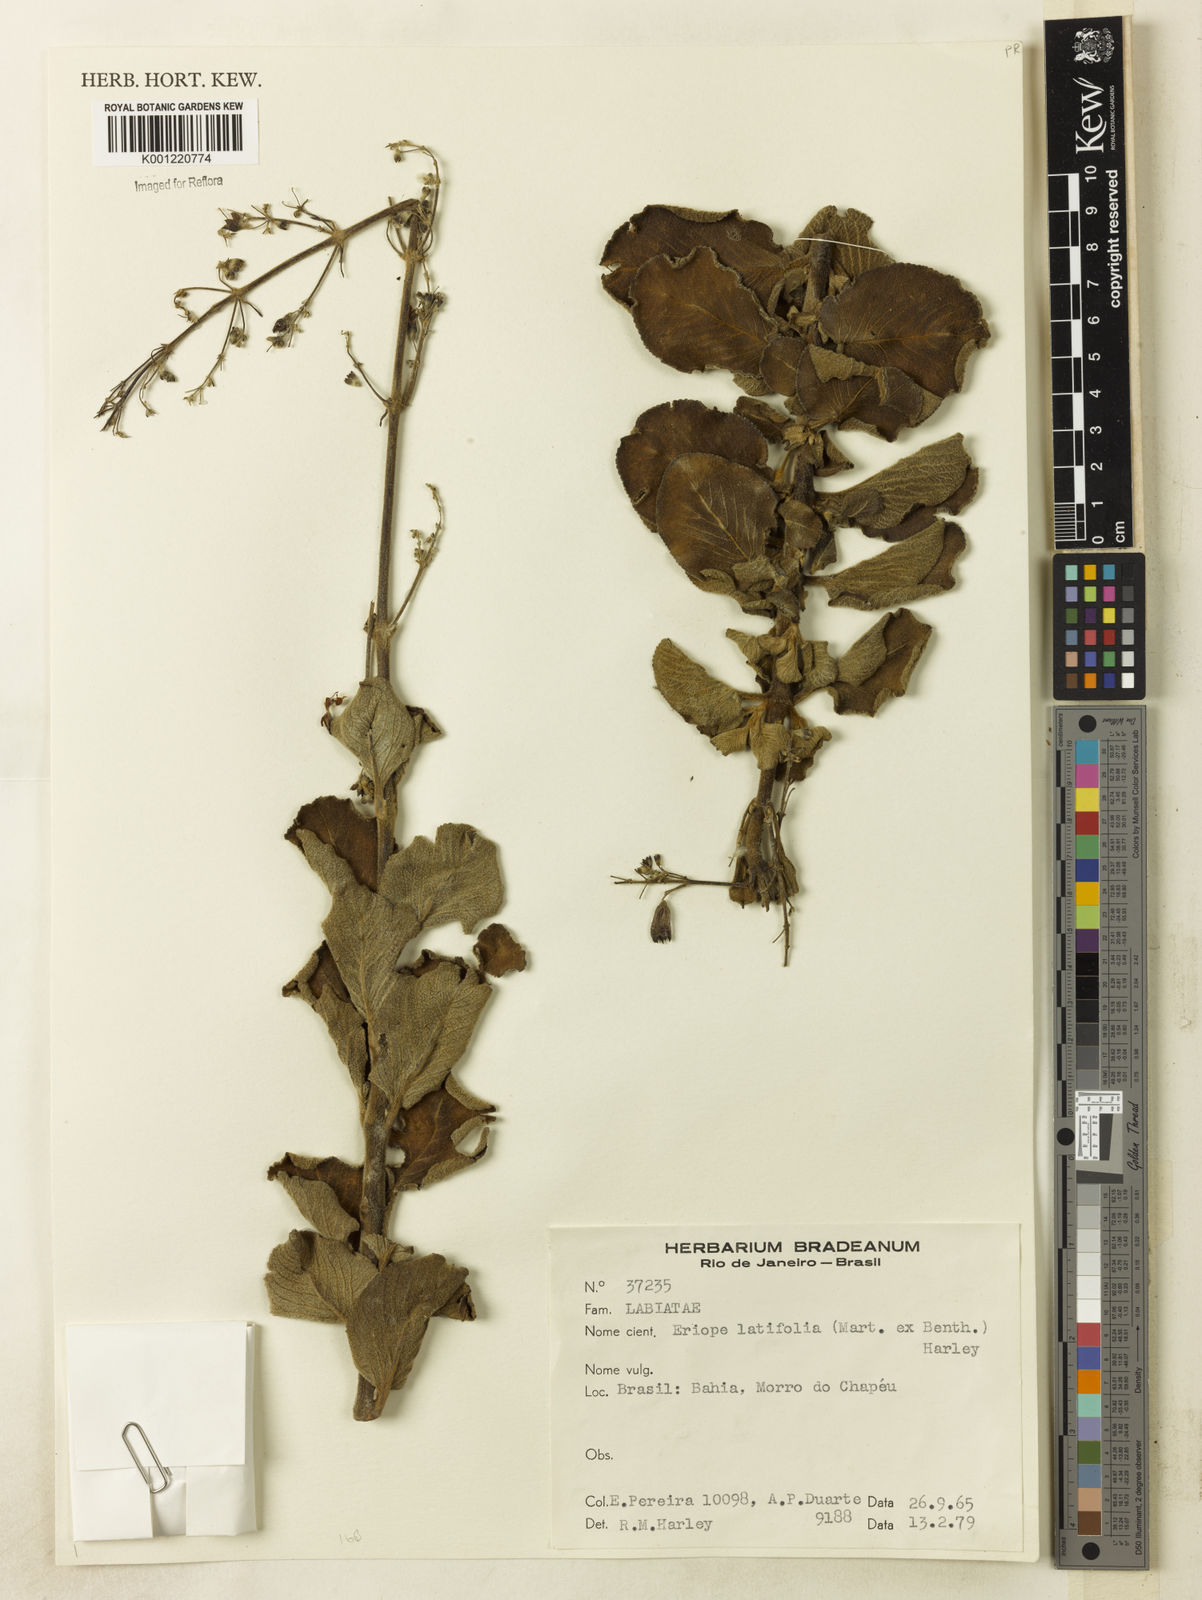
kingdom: Plantae
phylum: Tracheophyta
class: Magnoliopsida
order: Lamiales
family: Lamiaceae
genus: Eriope
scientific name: Eriope latifolia
